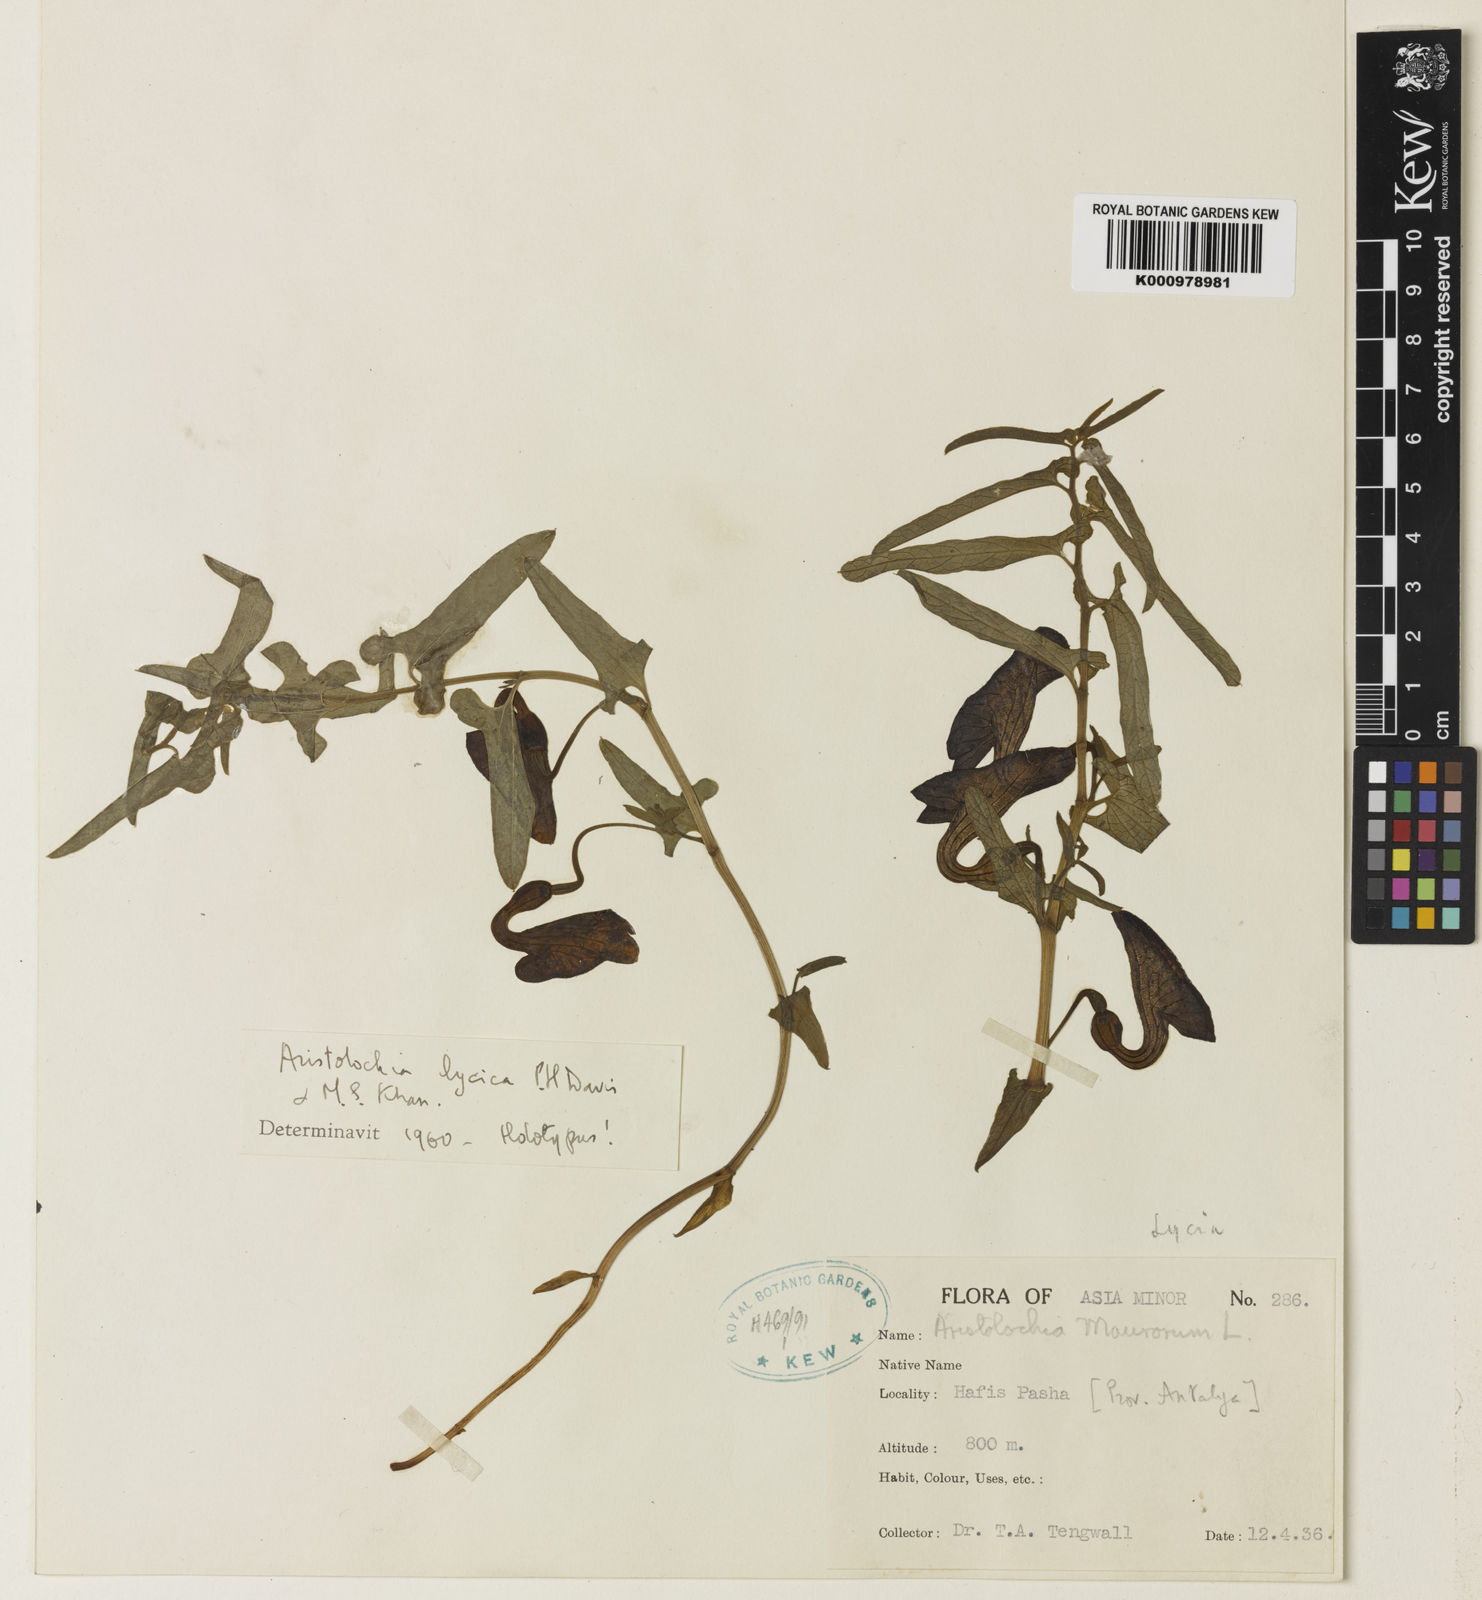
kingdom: Plantae
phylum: Tracheophyta
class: Magnoliopsida
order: Piperales
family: Aristolochiaceae
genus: Aristolochia
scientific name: Aristolochia lycica
